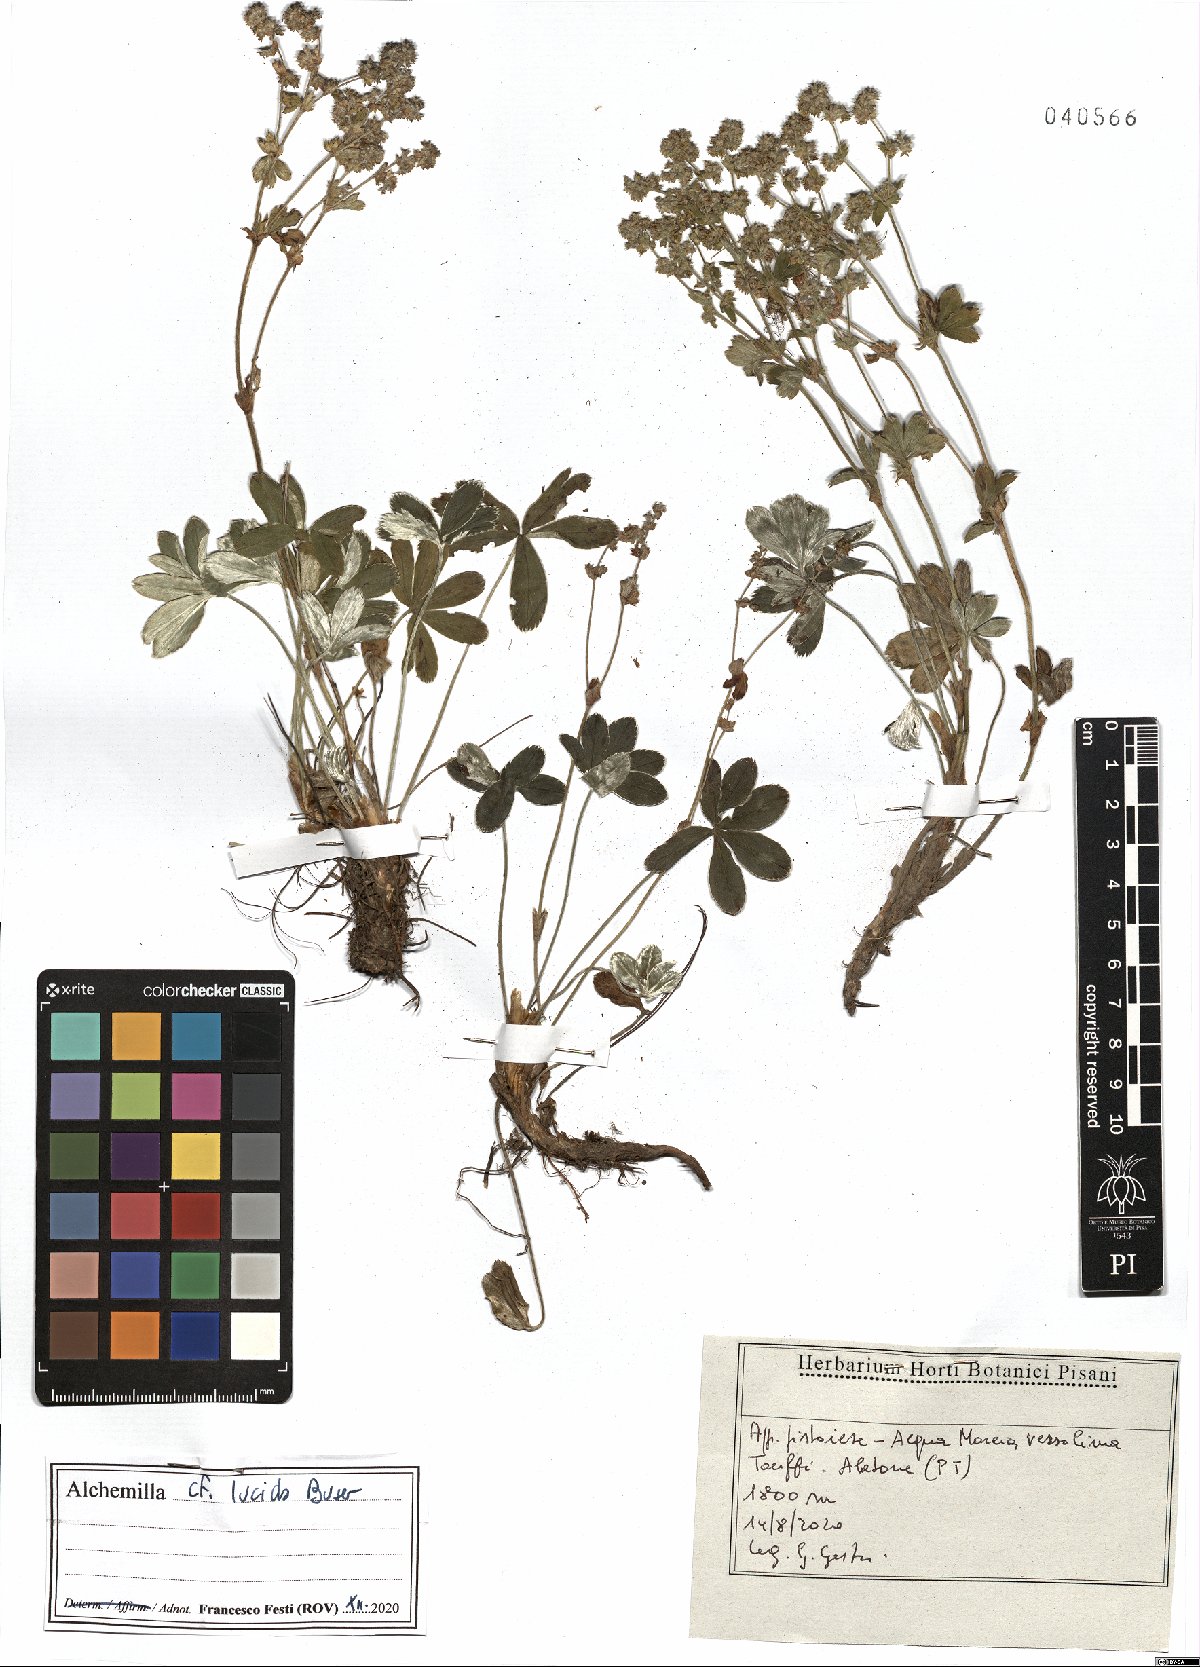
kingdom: Plantae
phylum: Tracheophyta
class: Magnoliopsida
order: Rosales
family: Rosaceae
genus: Alchemilla
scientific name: Alchemilla lucida
